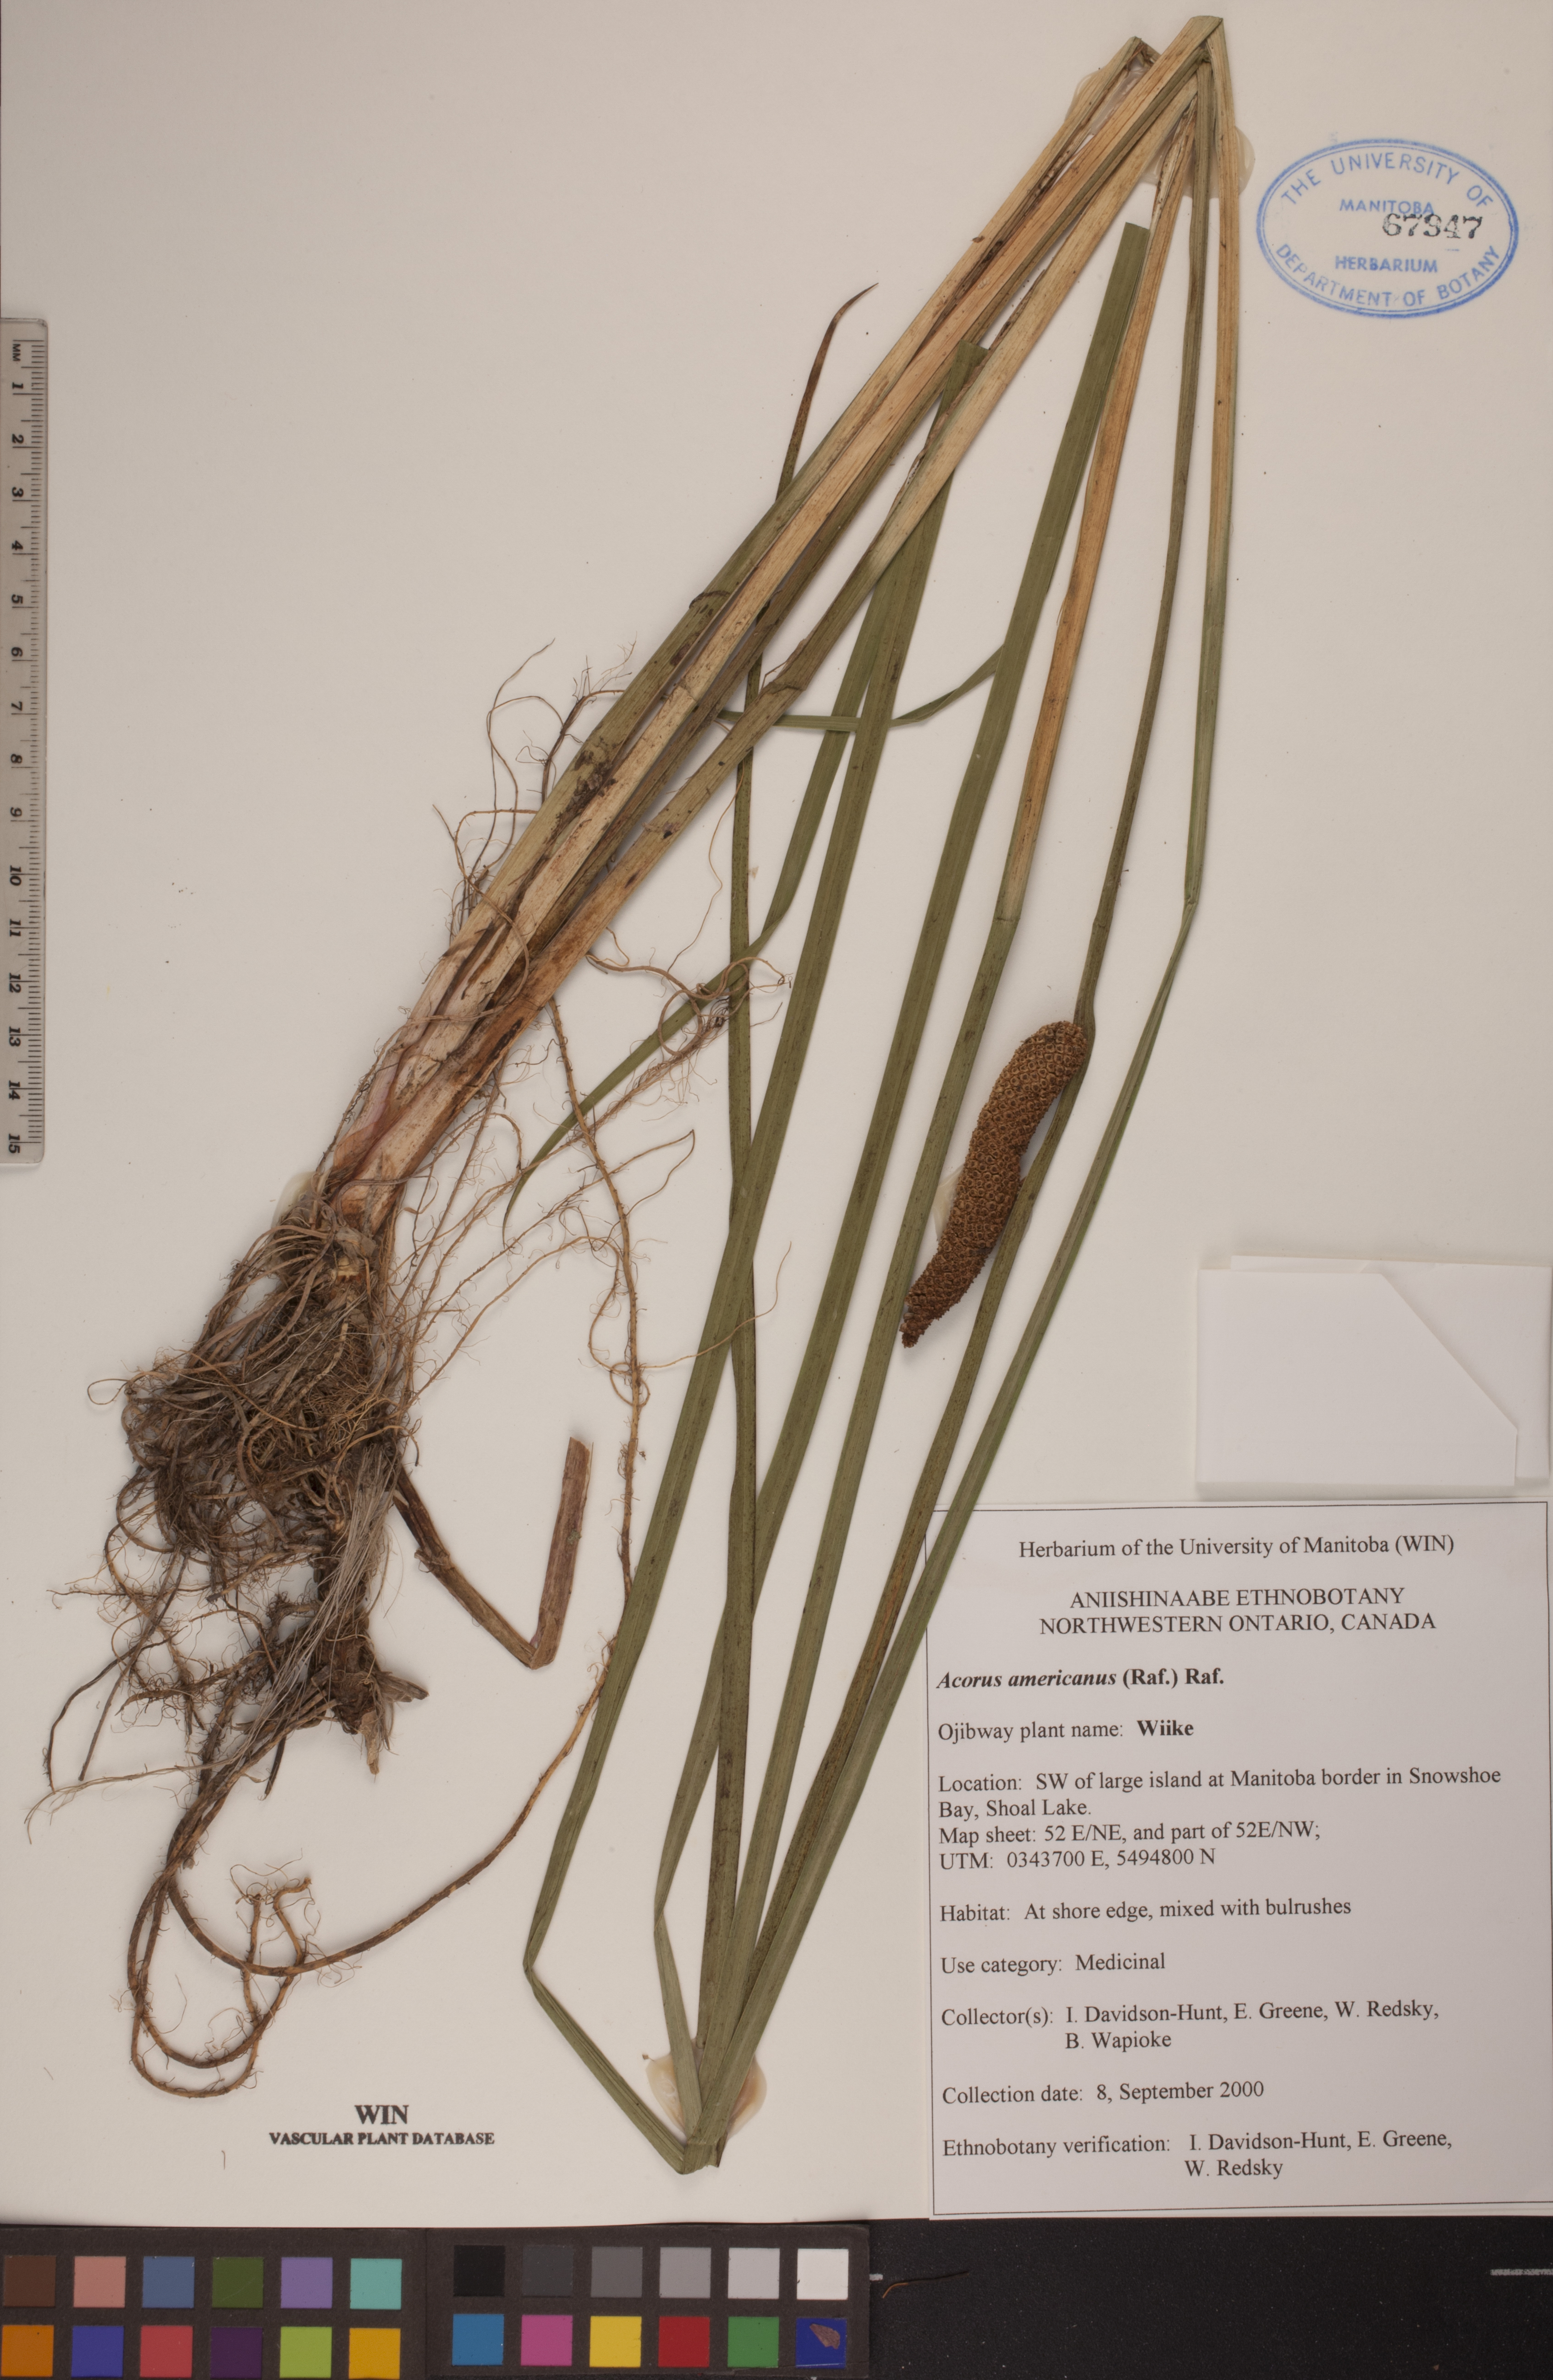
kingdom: Plantae
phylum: Tracheophyta
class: Liliopsida
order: Acorales
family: Acoraceae
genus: Acorus
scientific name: Acorus calamus
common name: Sweet-flag
